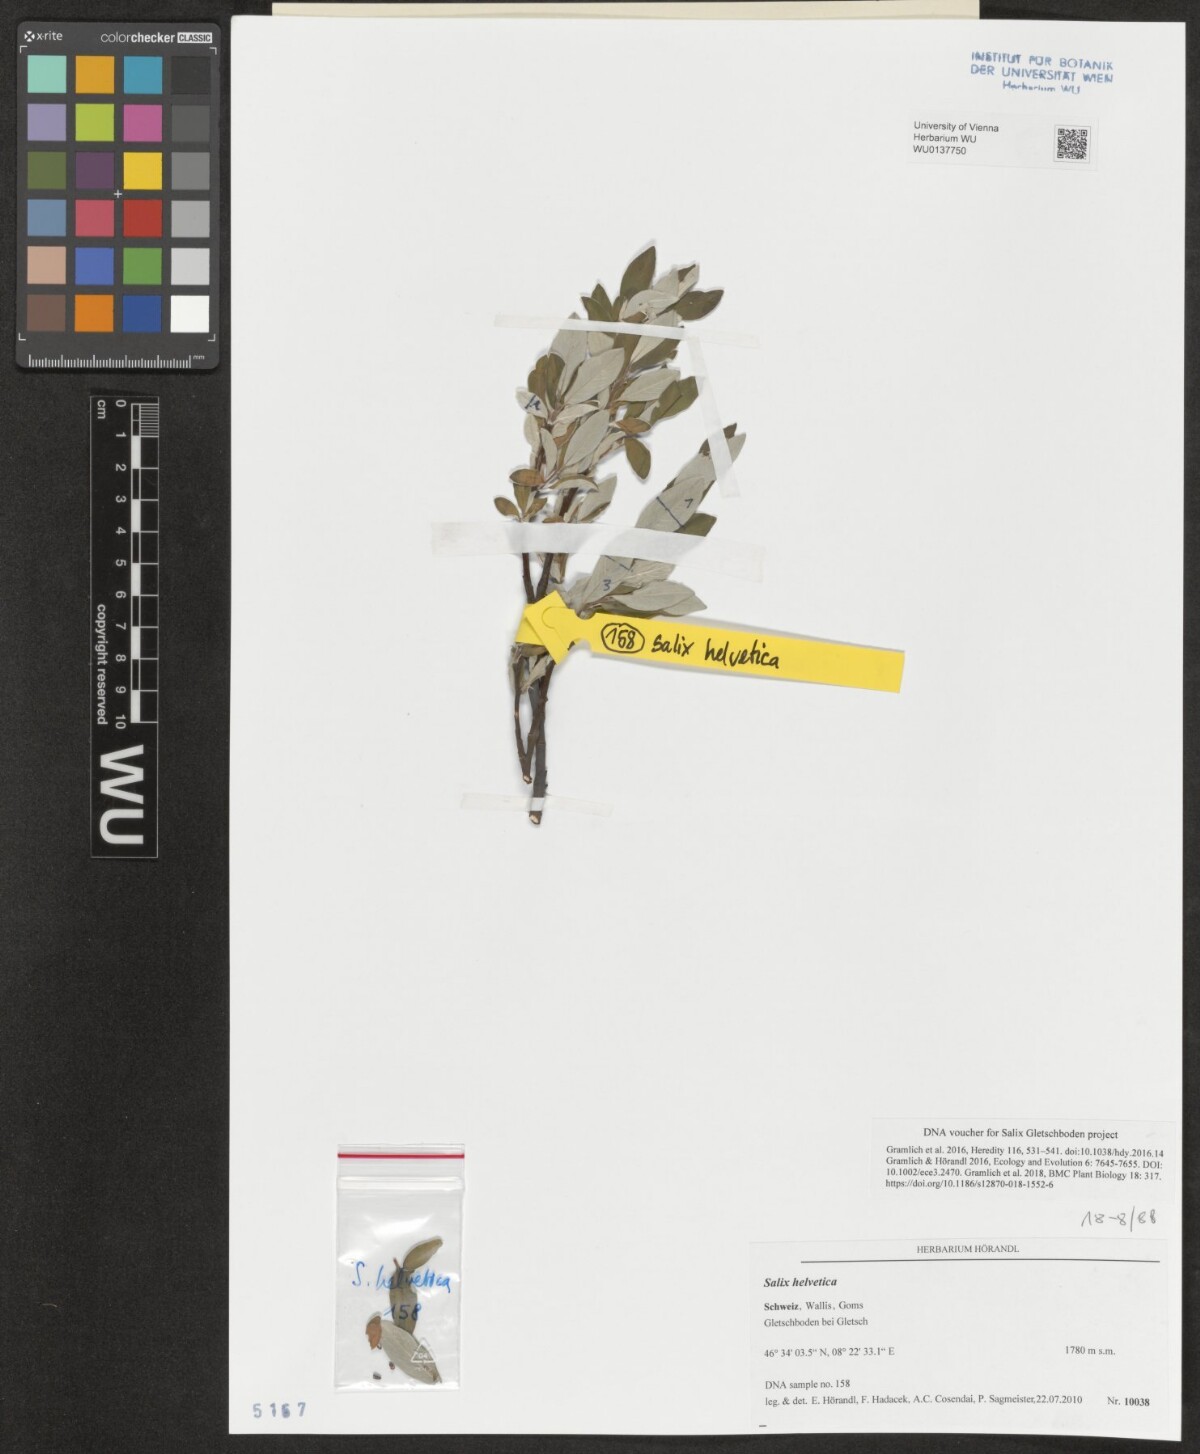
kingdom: Plantae
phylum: Tracheophyta
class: Magnoliopsida
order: Malpighiales
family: Salicaceae
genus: Salix
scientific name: Salix helvetica
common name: Swiss willow
